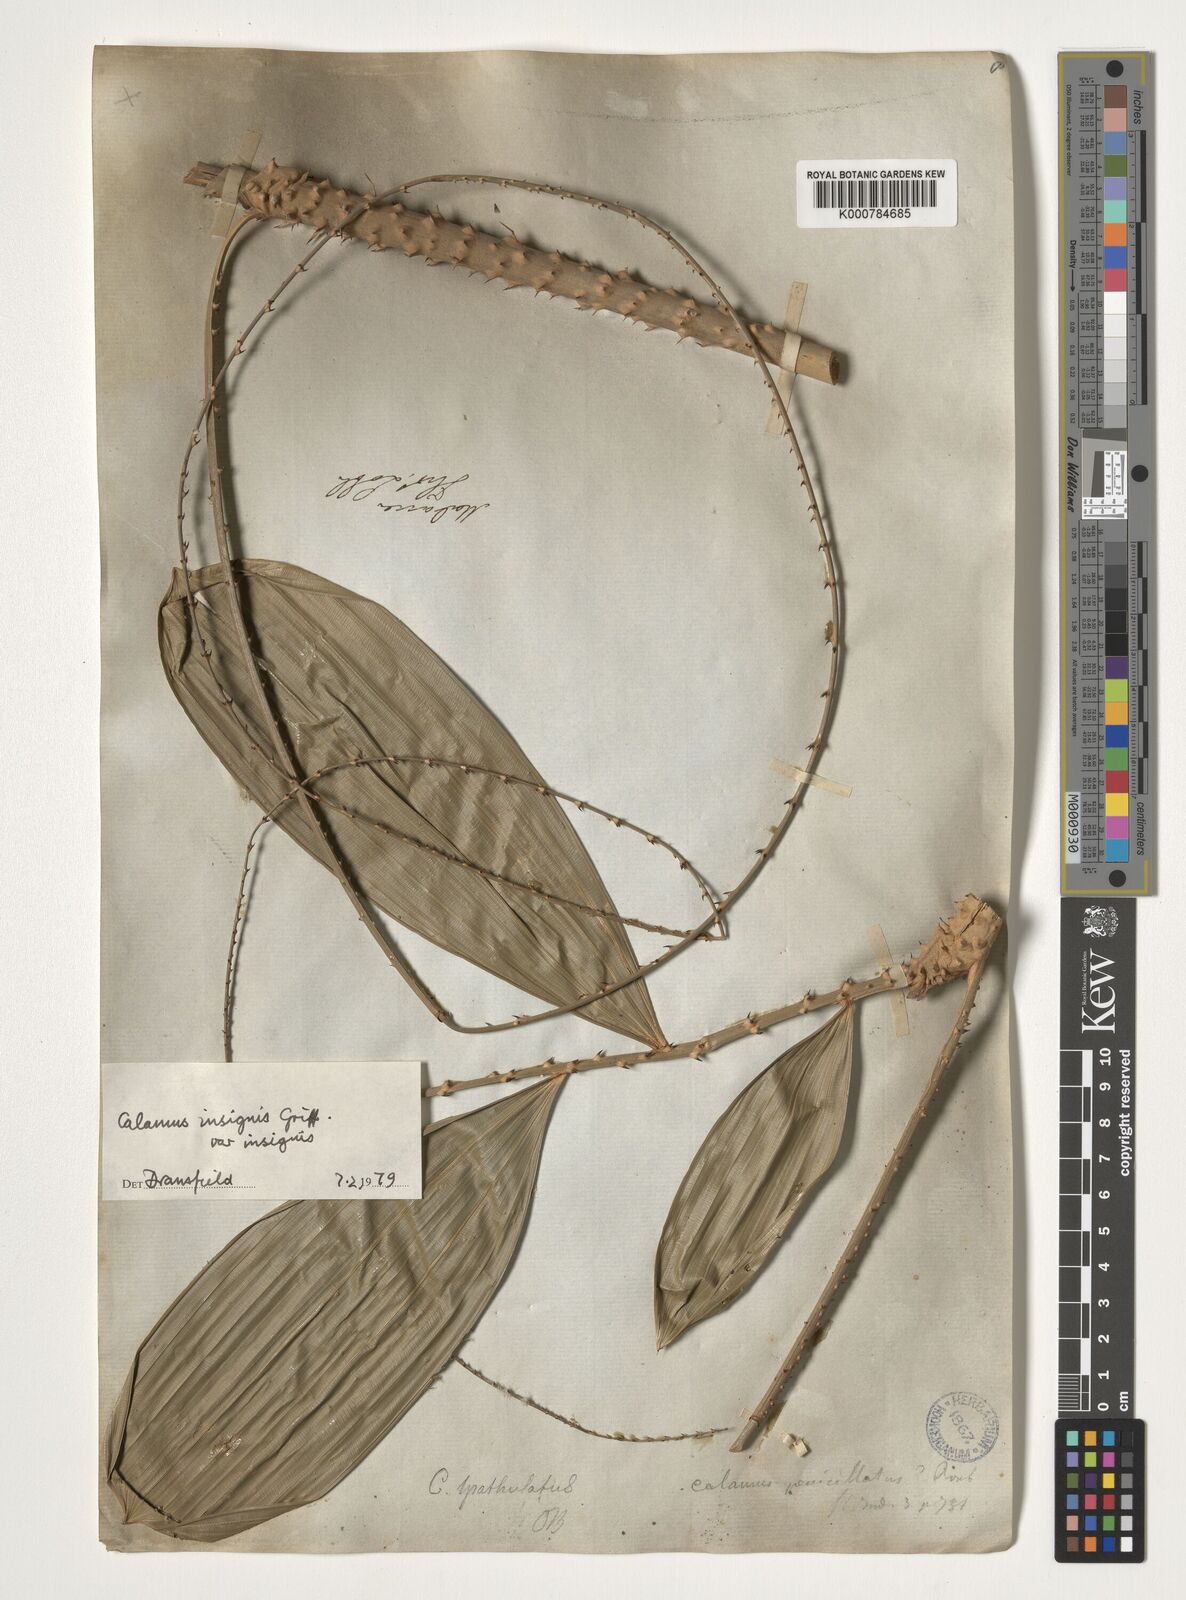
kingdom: Plantae
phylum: Tracheophyta
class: Liliopsida
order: Arecales
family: Arecaceae
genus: Calamus
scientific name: Calamus insignis
